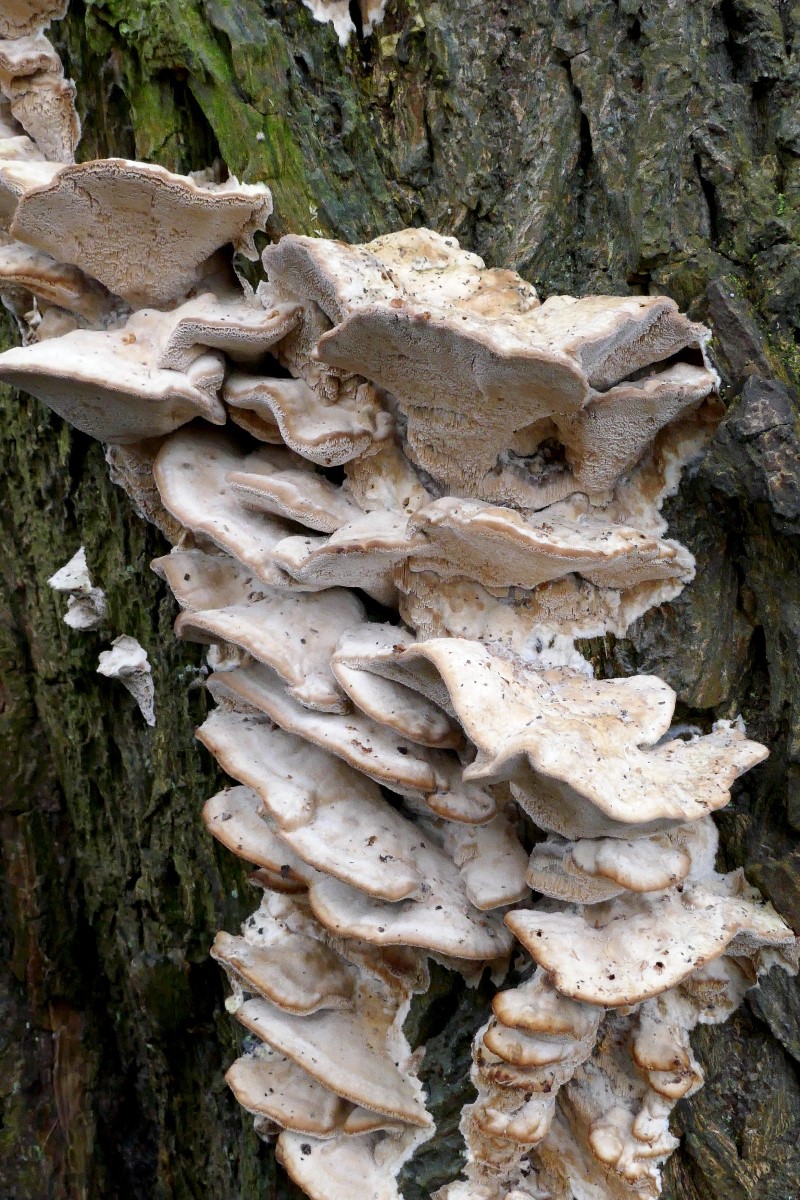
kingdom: Fungi
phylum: Basidiomycota
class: Agaricomycetes
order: Polyporales
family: Phanerochaetaceae
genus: Bjerkandera
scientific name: Bjerkandera fumosa
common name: grågul sodporesvamp
